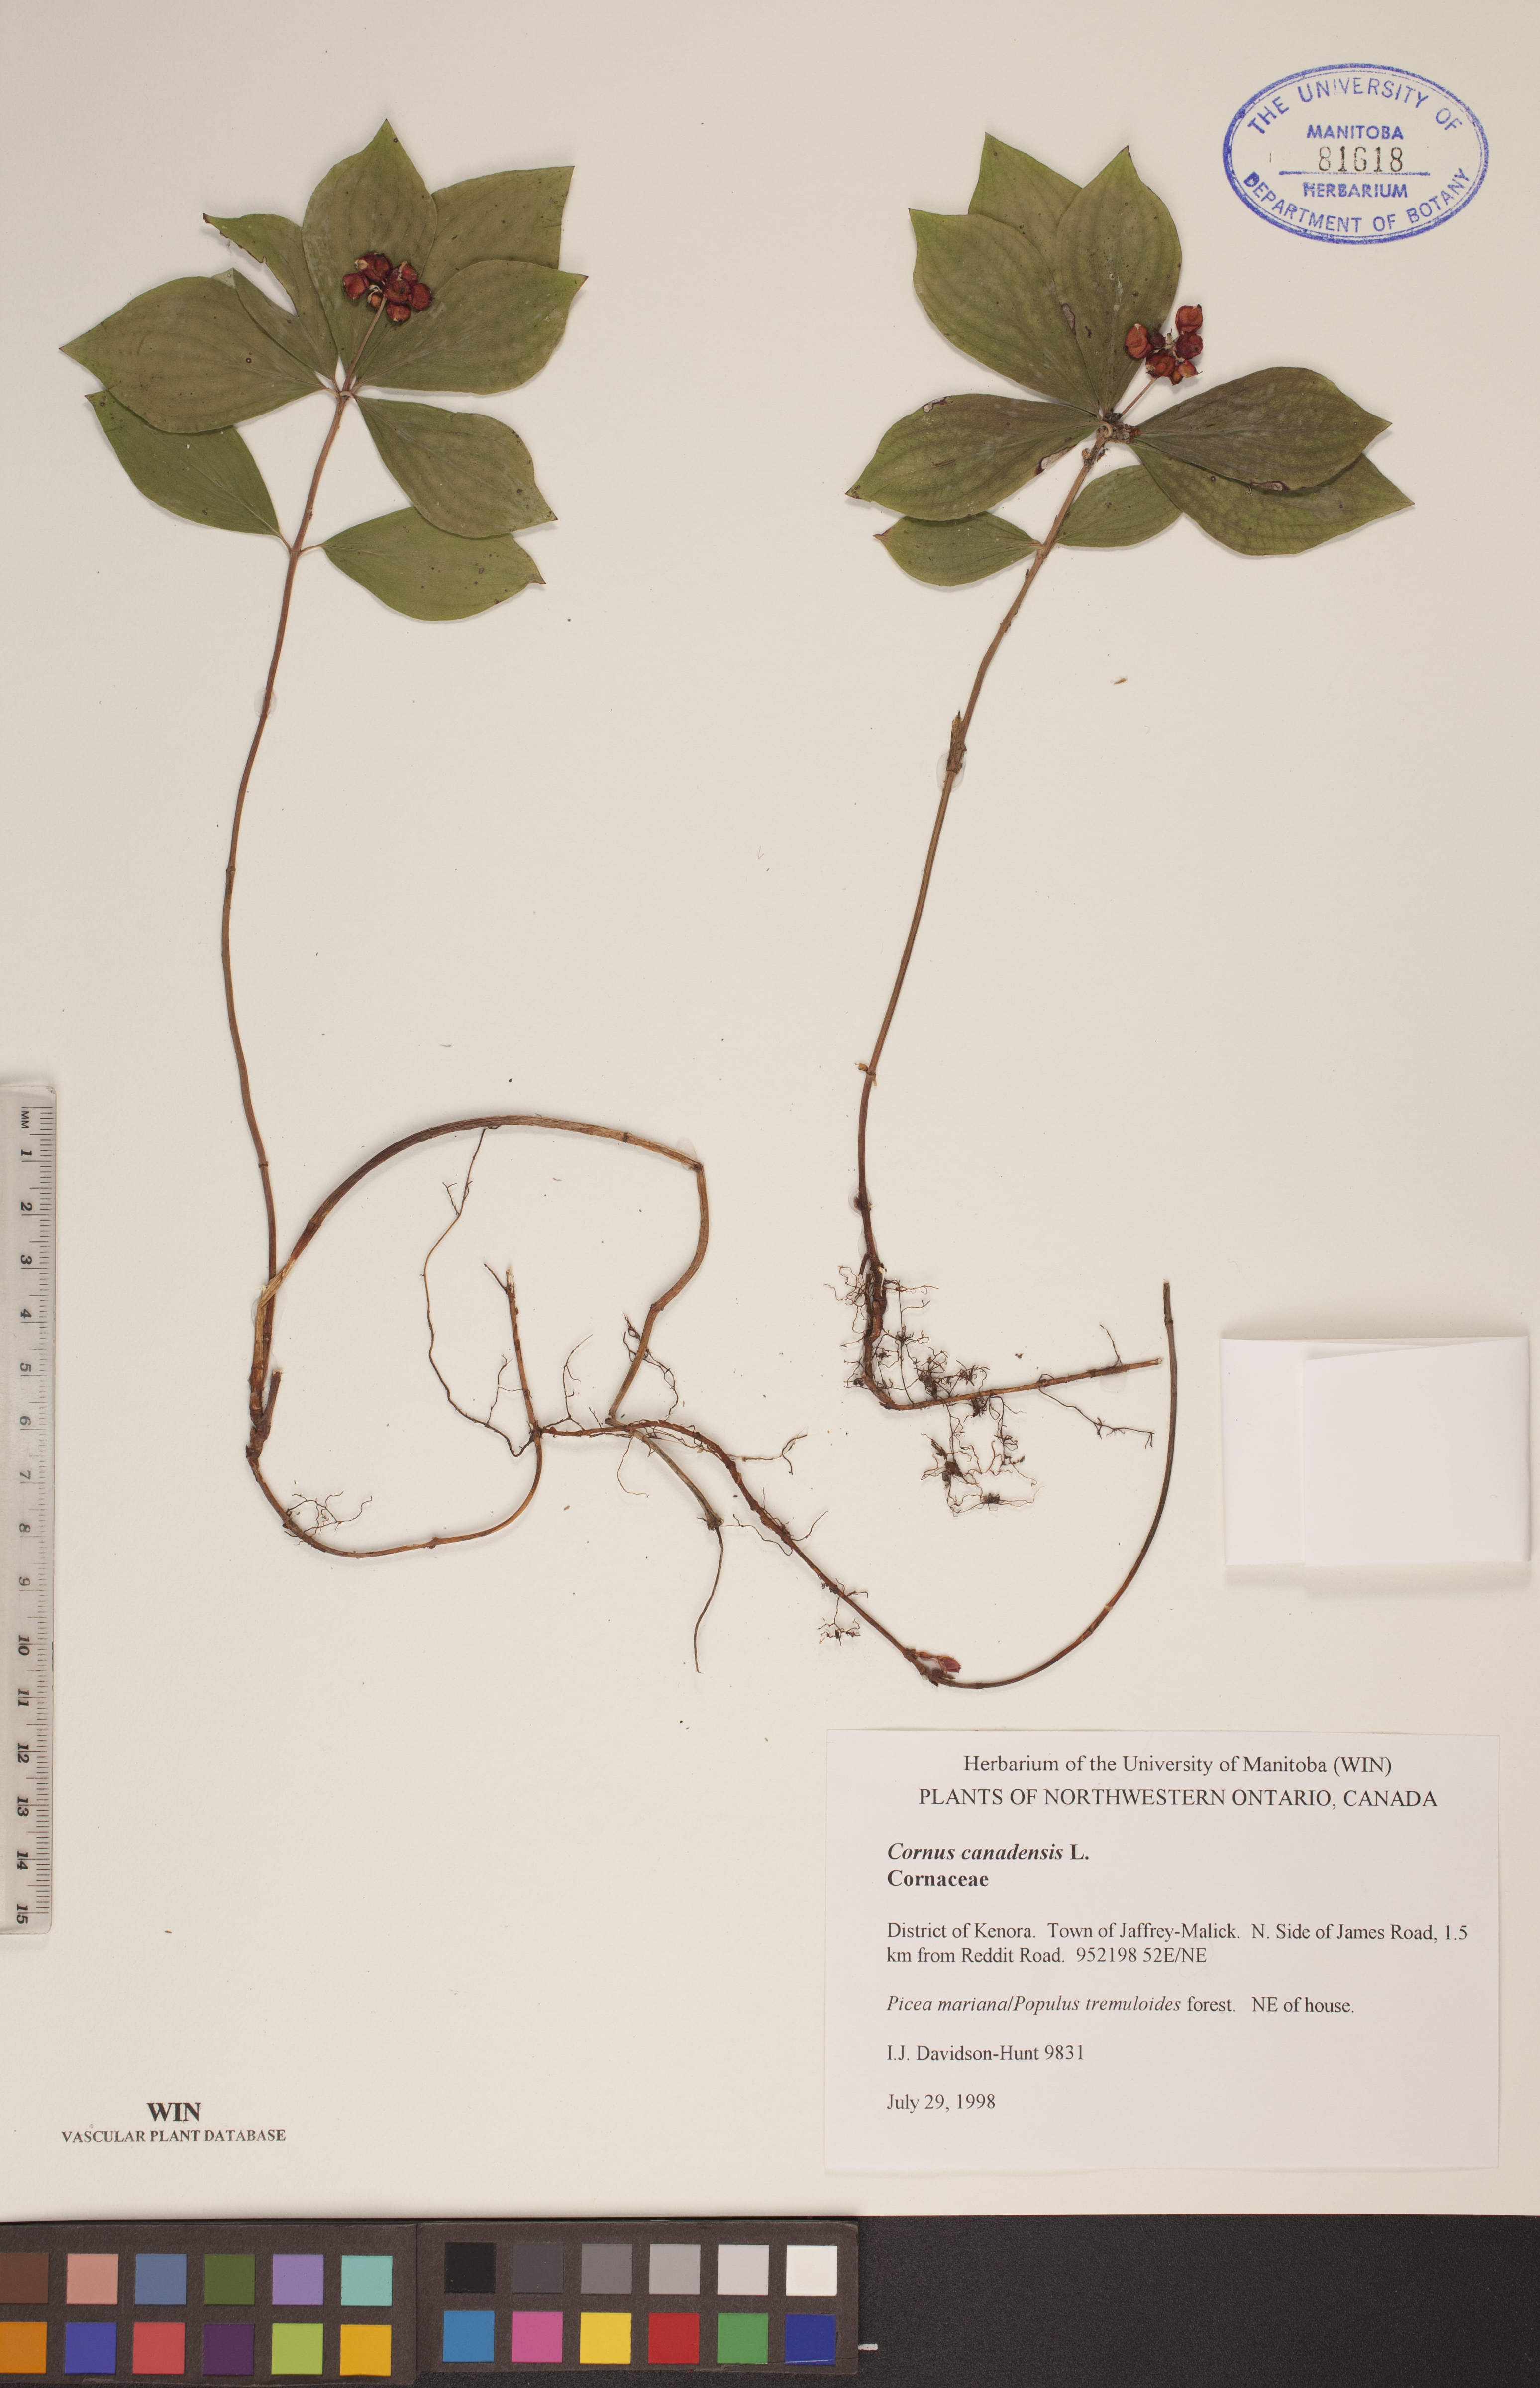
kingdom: Plantae
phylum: Tracheophyta
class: Magnoliopsida
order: Cornales
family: Cornaceae
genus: Cornus
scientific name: Cornus canadensis
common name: Creeping dogwood
